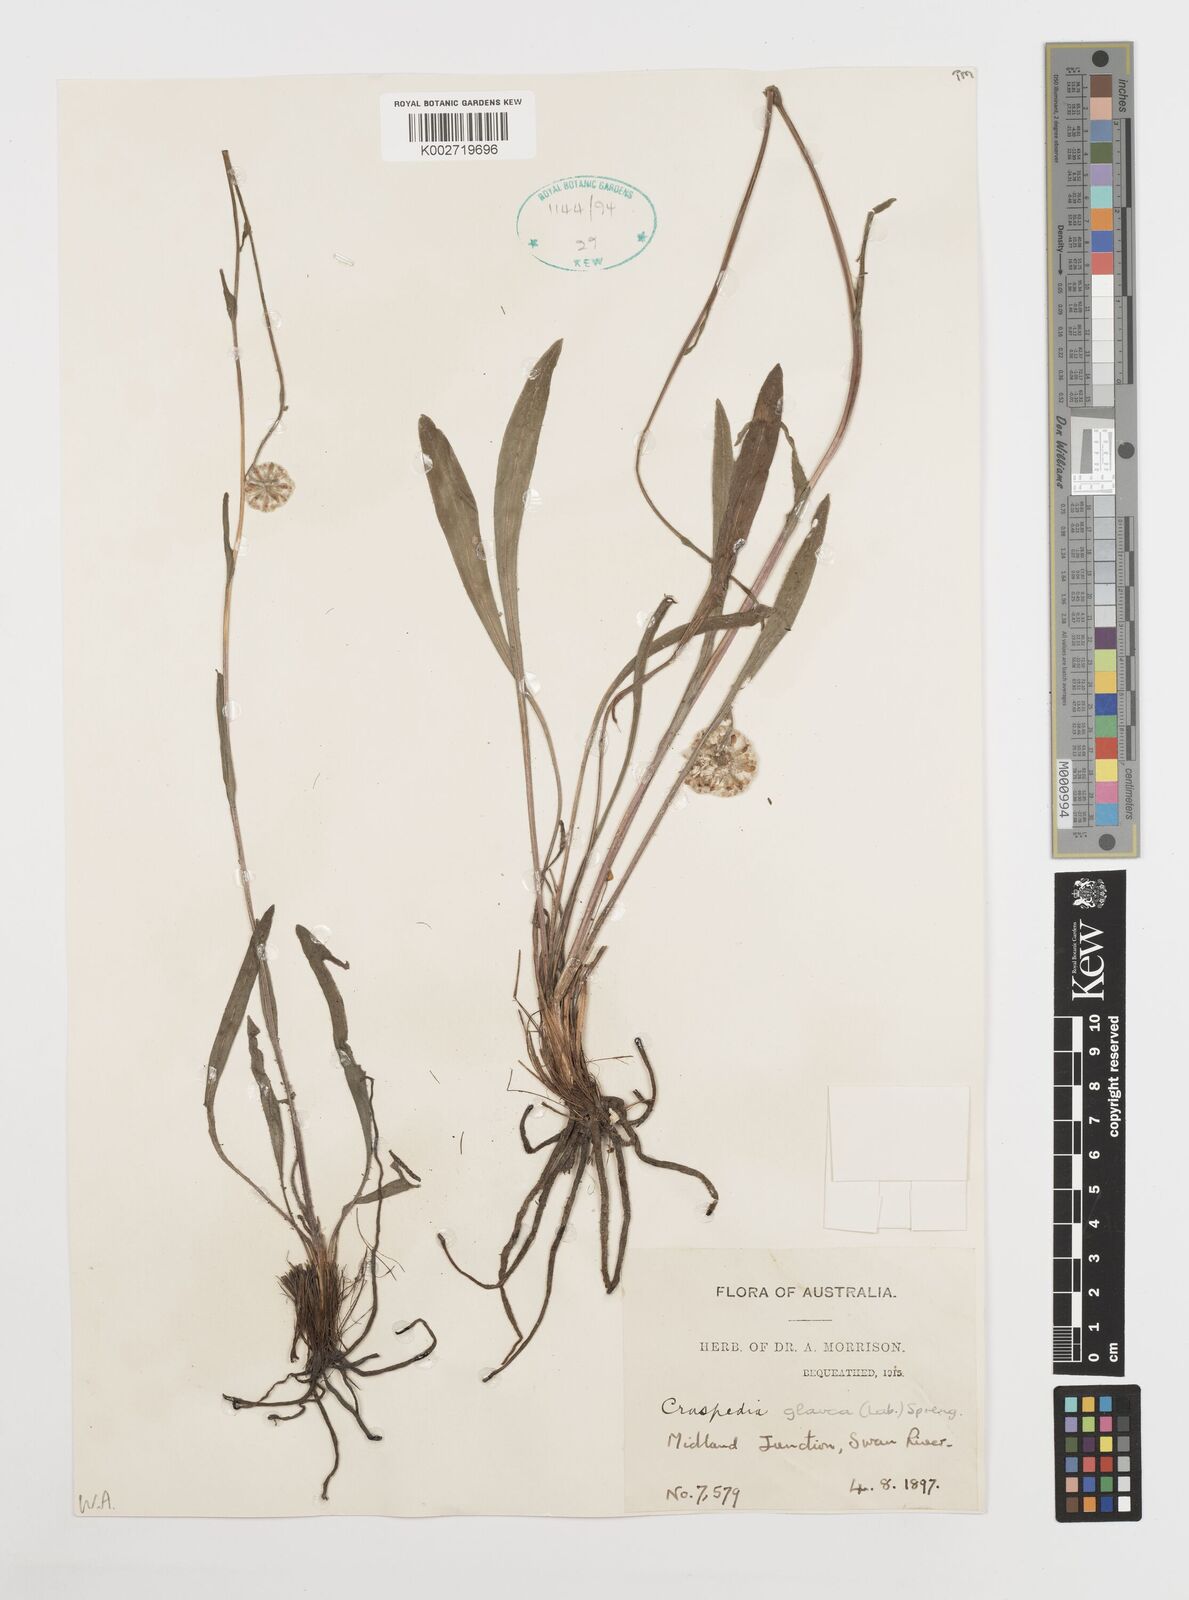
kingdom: Plantae
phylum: Tracheophyta
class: Magnoliopsida
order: Asterales
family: Asteraceae
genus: Craspedia
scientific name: Craspedia glauca
